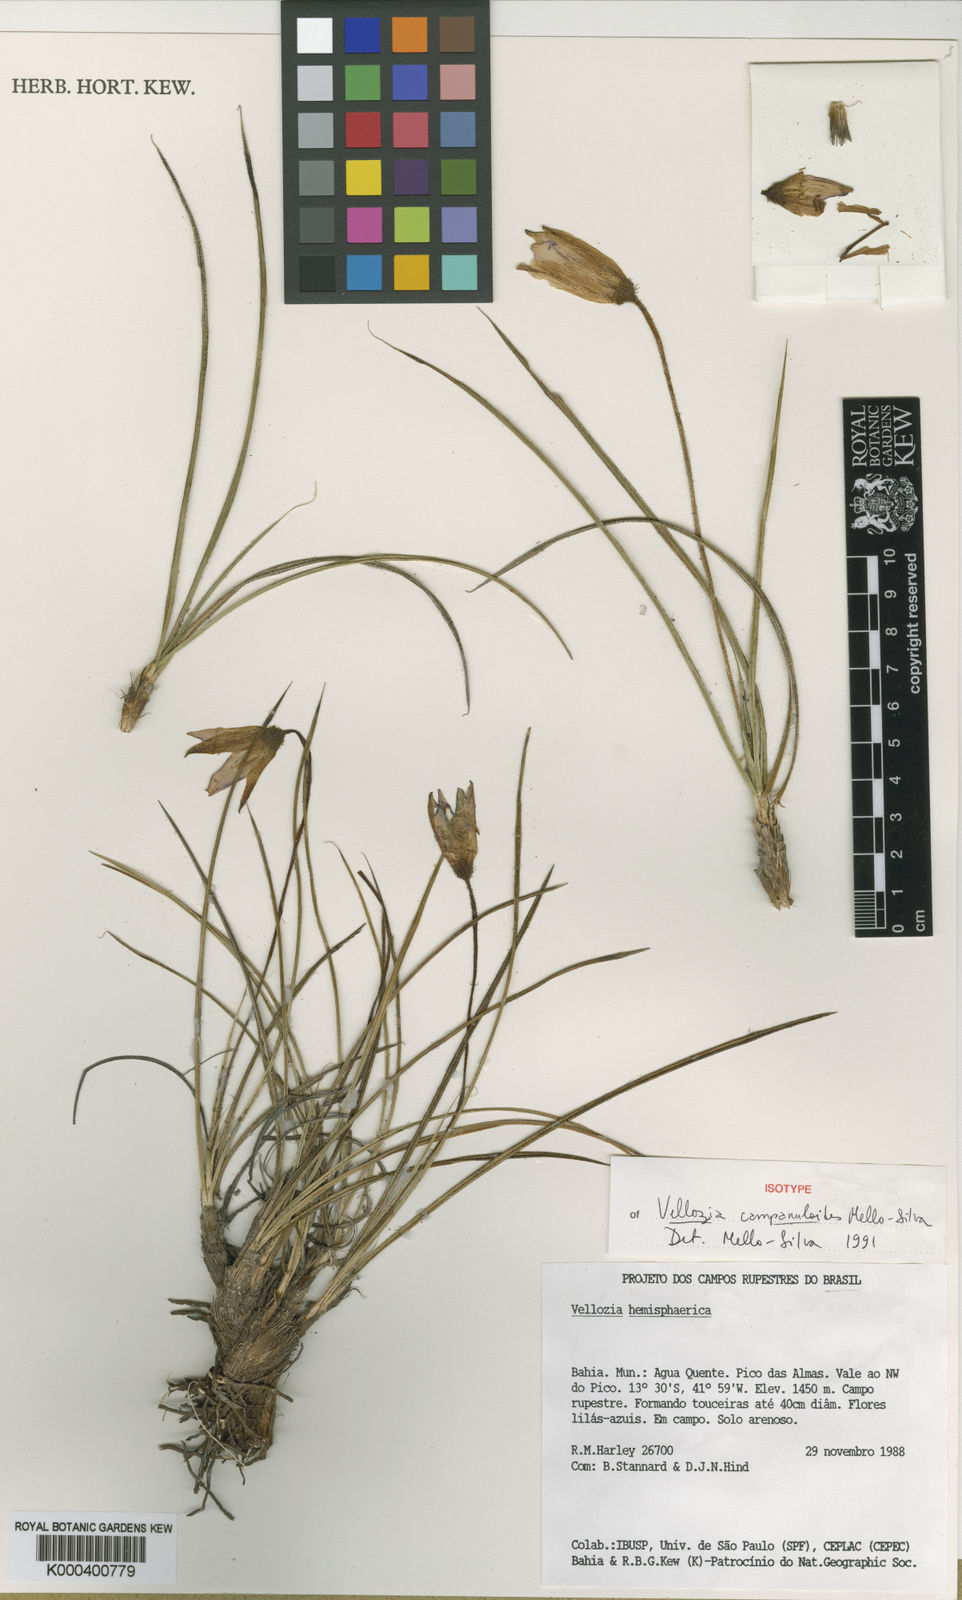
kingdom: Plantae
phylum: Tracheophyta
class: Liliopsida
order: Pandanales
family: Velloziaceae
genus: Vellozia
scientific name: Vellozia caudata
